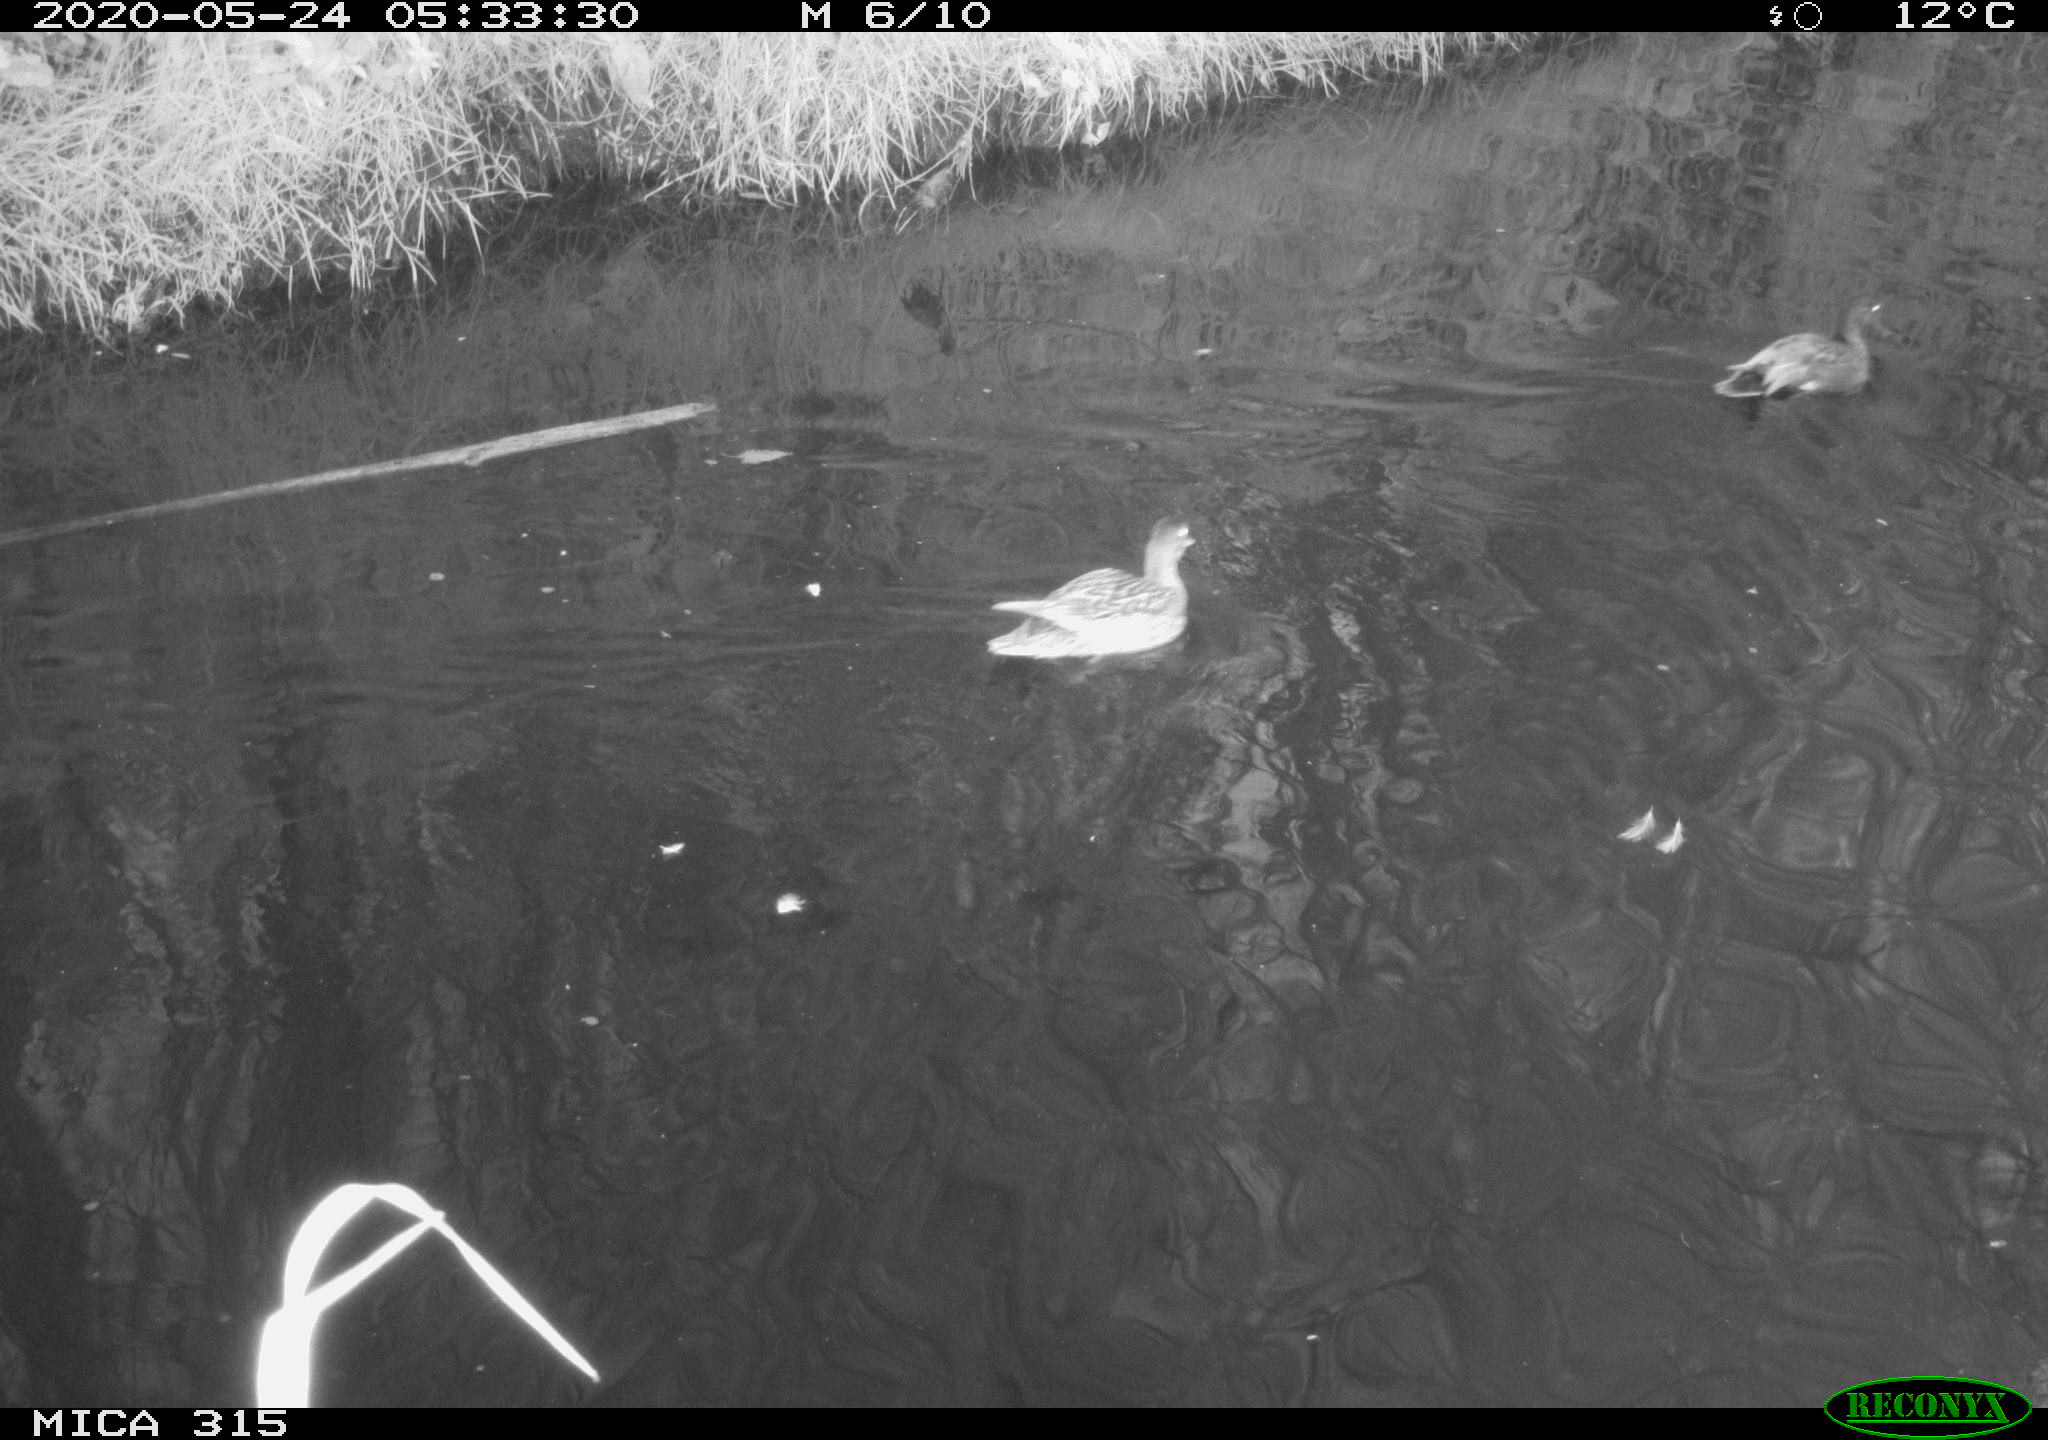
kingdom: Animalia
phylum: Chordata
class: Aves
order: Anseriformes
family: Anatidae
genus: Anas
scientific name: Anas platyrhynchos
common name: Mallard
